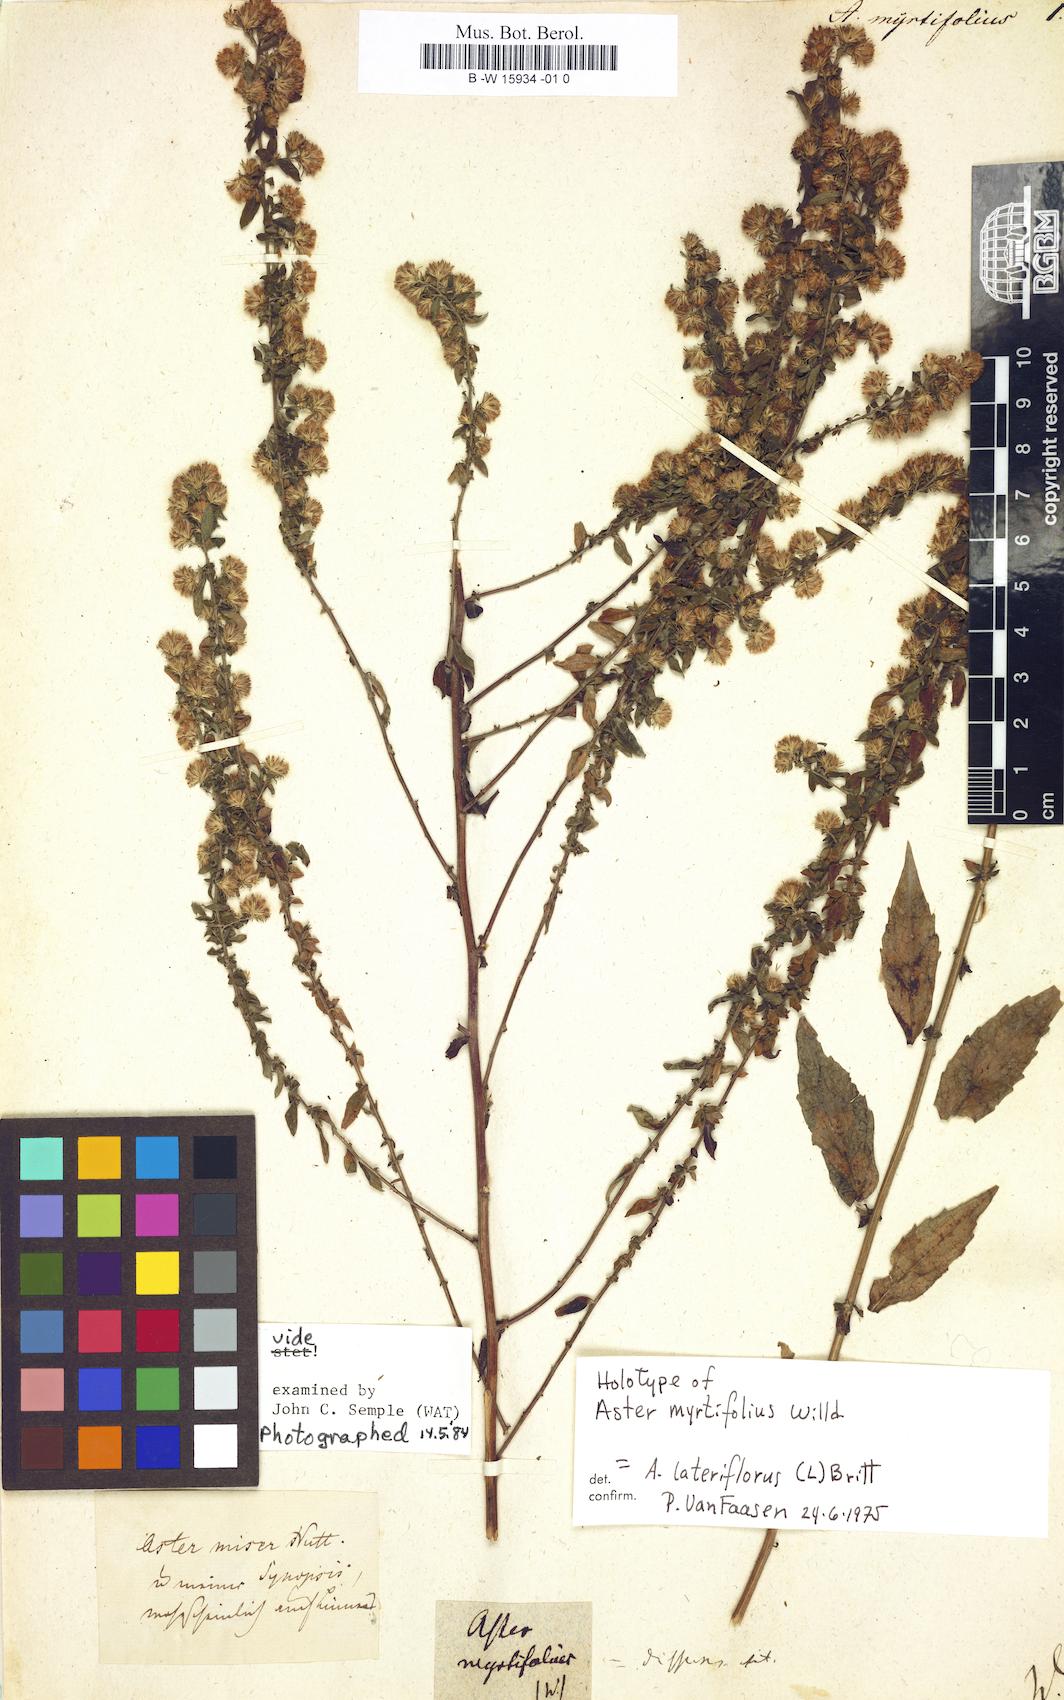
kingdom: Plantae
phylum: Tracheophyta
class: Magnoliopsida
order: Asterales
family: Asteraceae
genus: Symphyotrichum
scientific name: Symphyotrichum lateriflorum
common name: Calico aster
